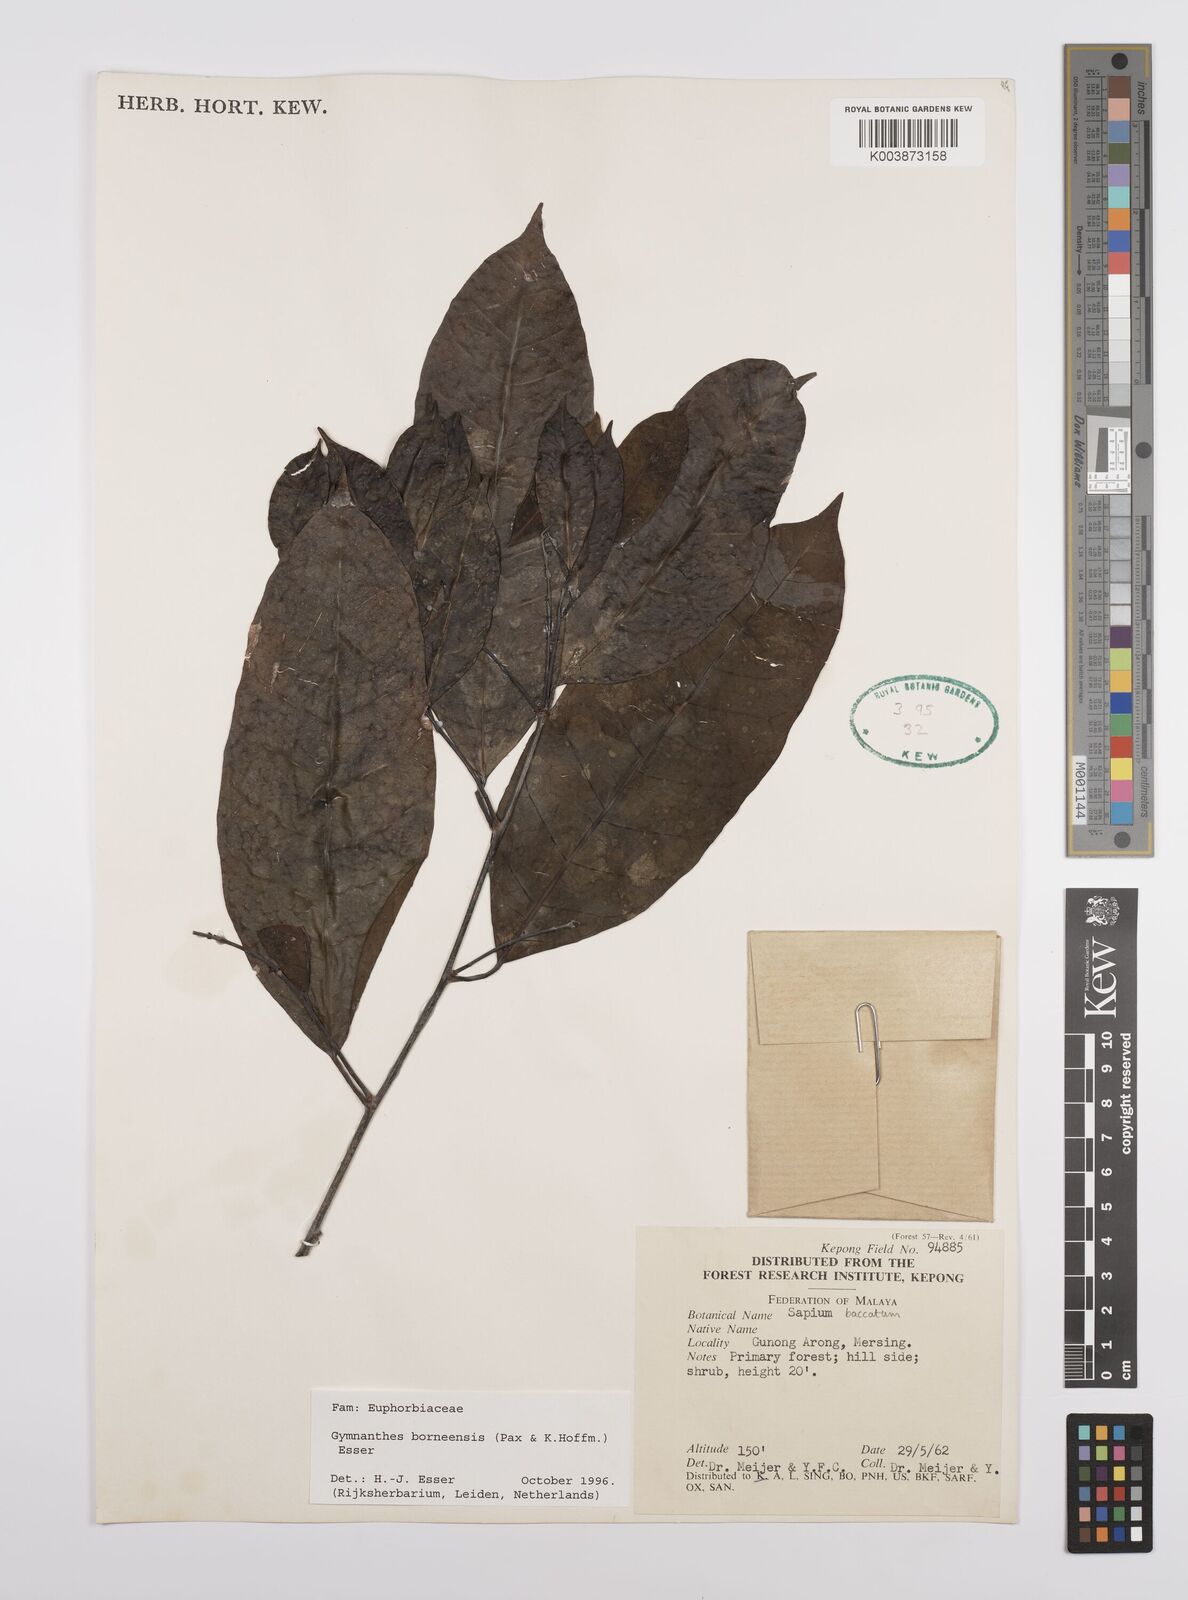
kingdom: Plantae
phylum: Tracheophyta
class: Magnoliopsida
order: Malpighiales
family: Euphorbiaceae
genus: Gymnanthes
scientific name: Gymnanthes borneensis
